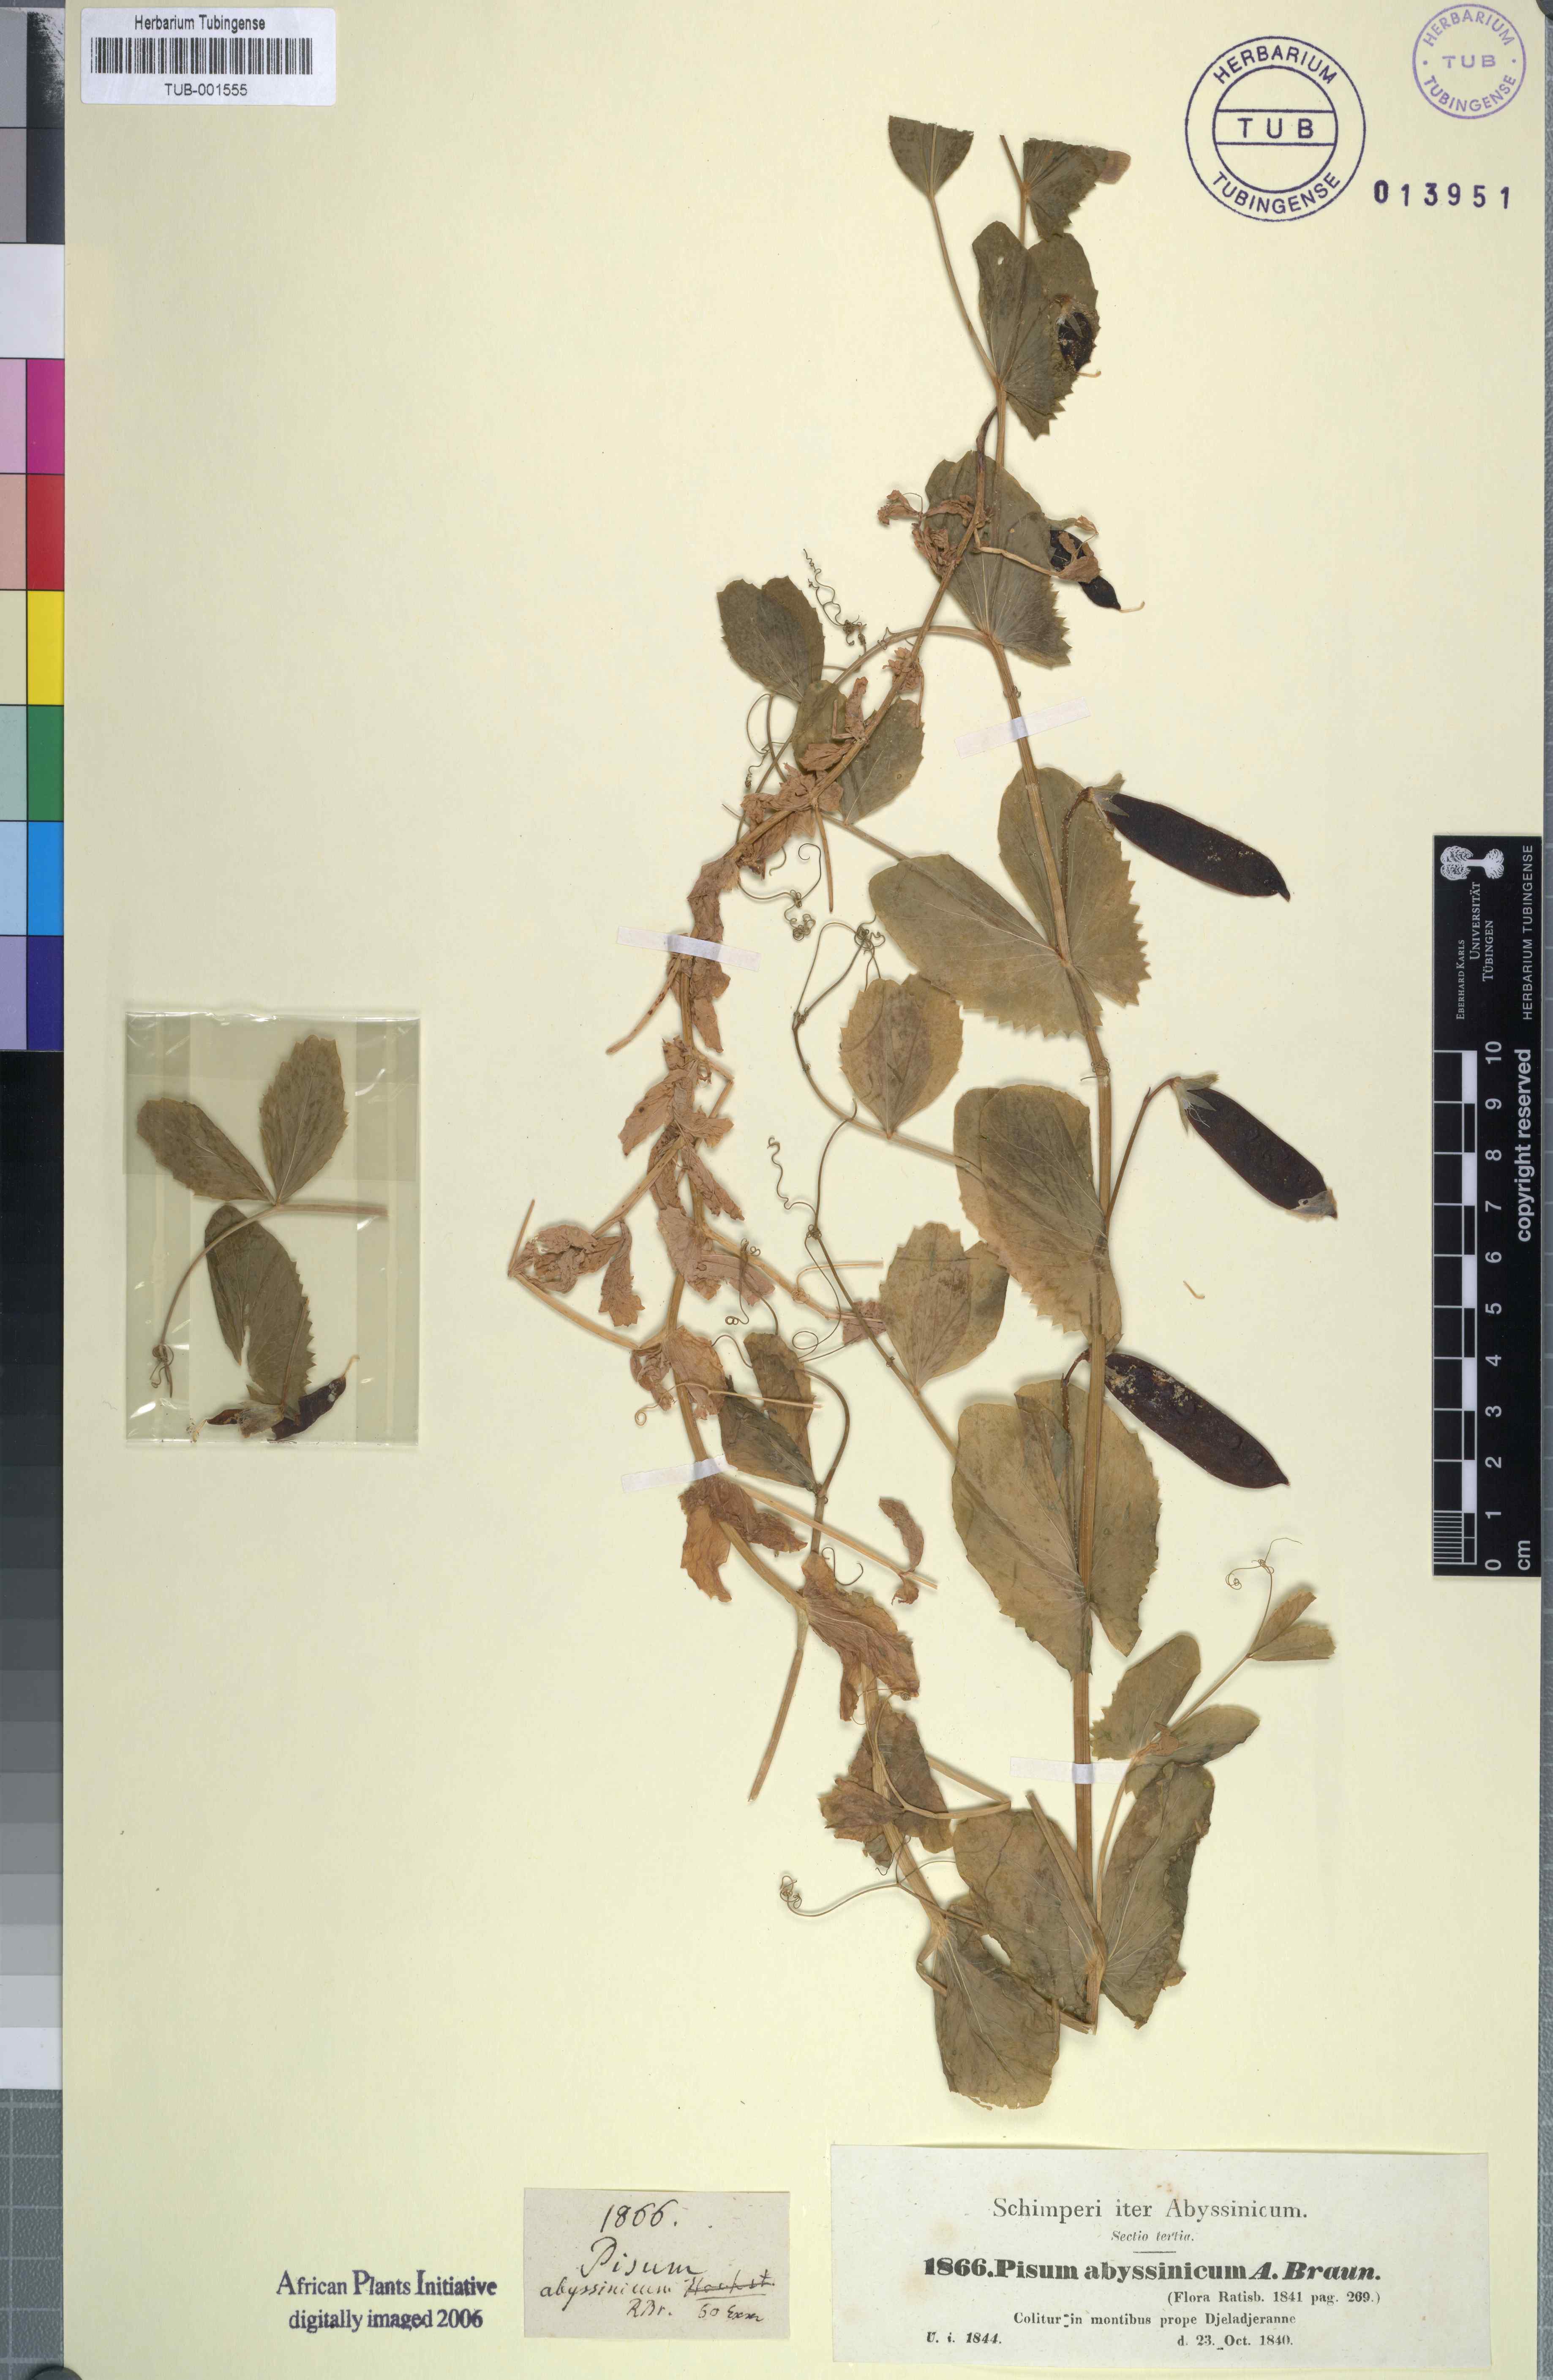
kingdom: Plantae
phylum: Tracheophyta
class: Magnoliopsida
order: Fabales
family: Fabaceae
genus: Lathyrus
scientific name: Lathyrus oleraceus
